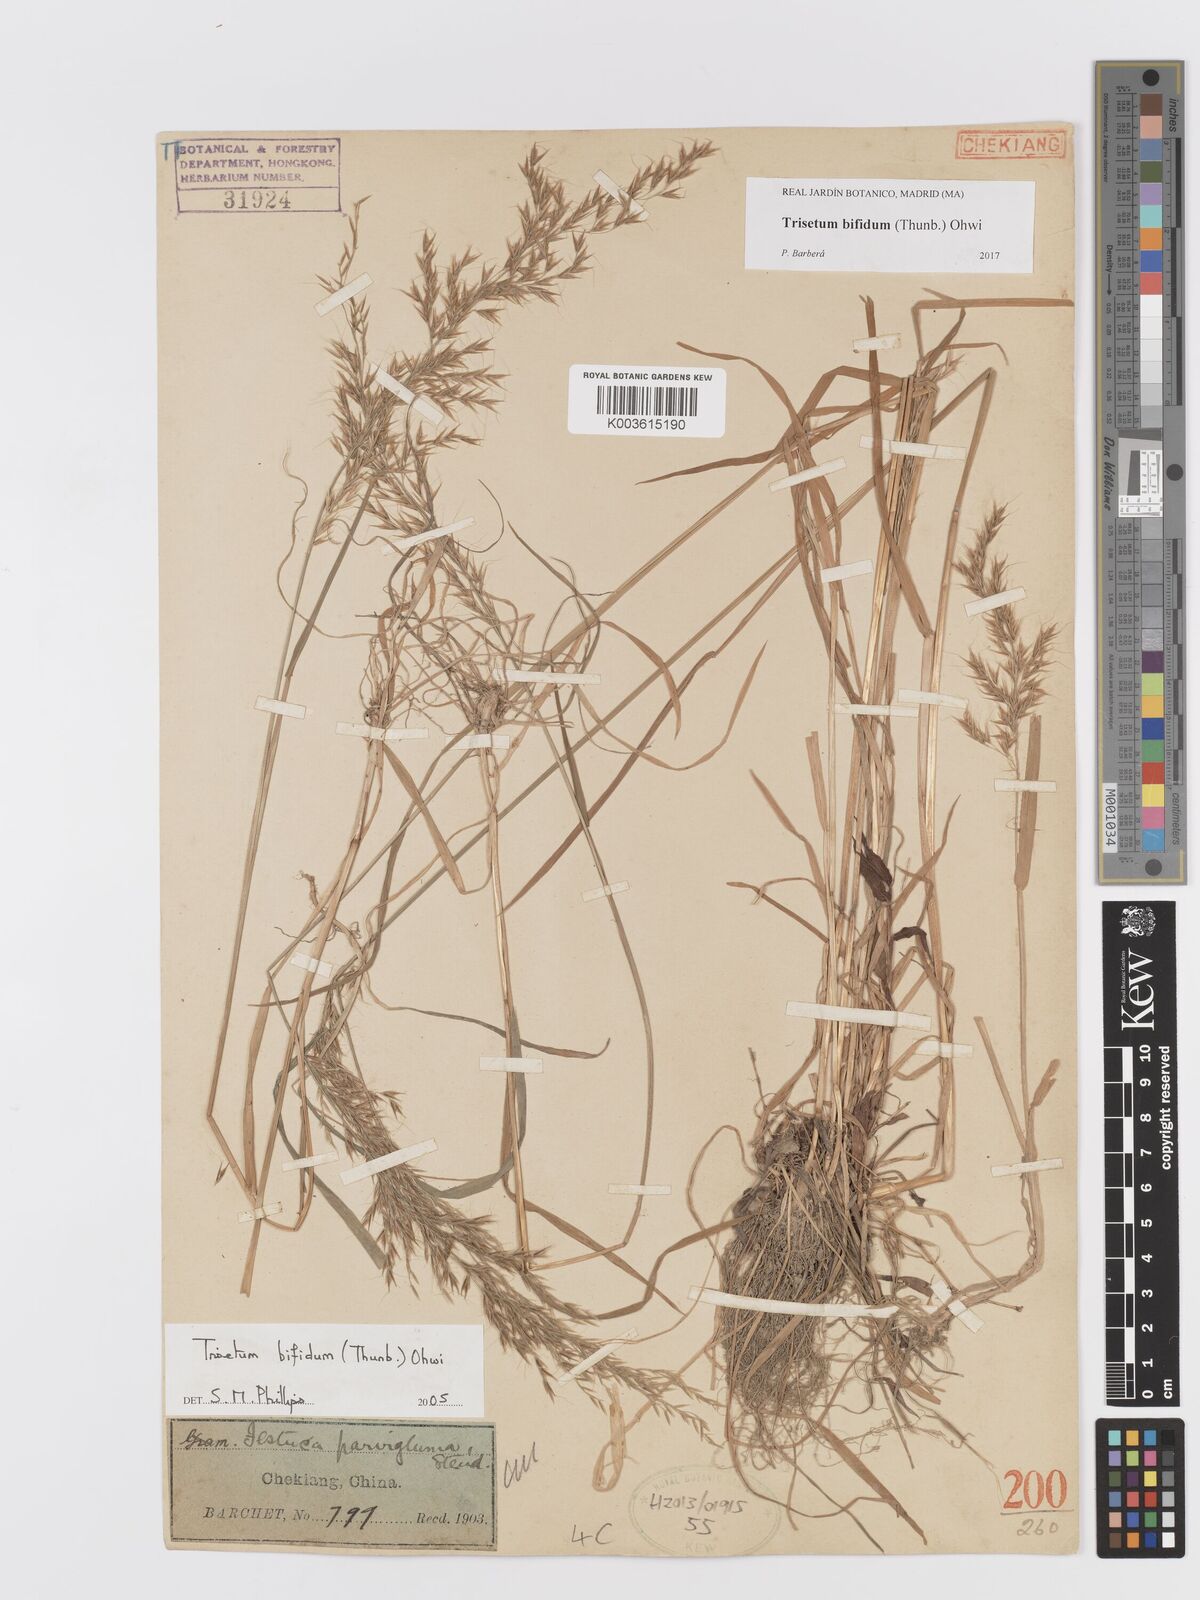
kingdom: Plantae
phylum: Tracheophyta
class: Liliopsida
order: Poales
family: Poaceae
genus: Sibirotrisetum
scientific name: Sibirotrisetum bifidum
